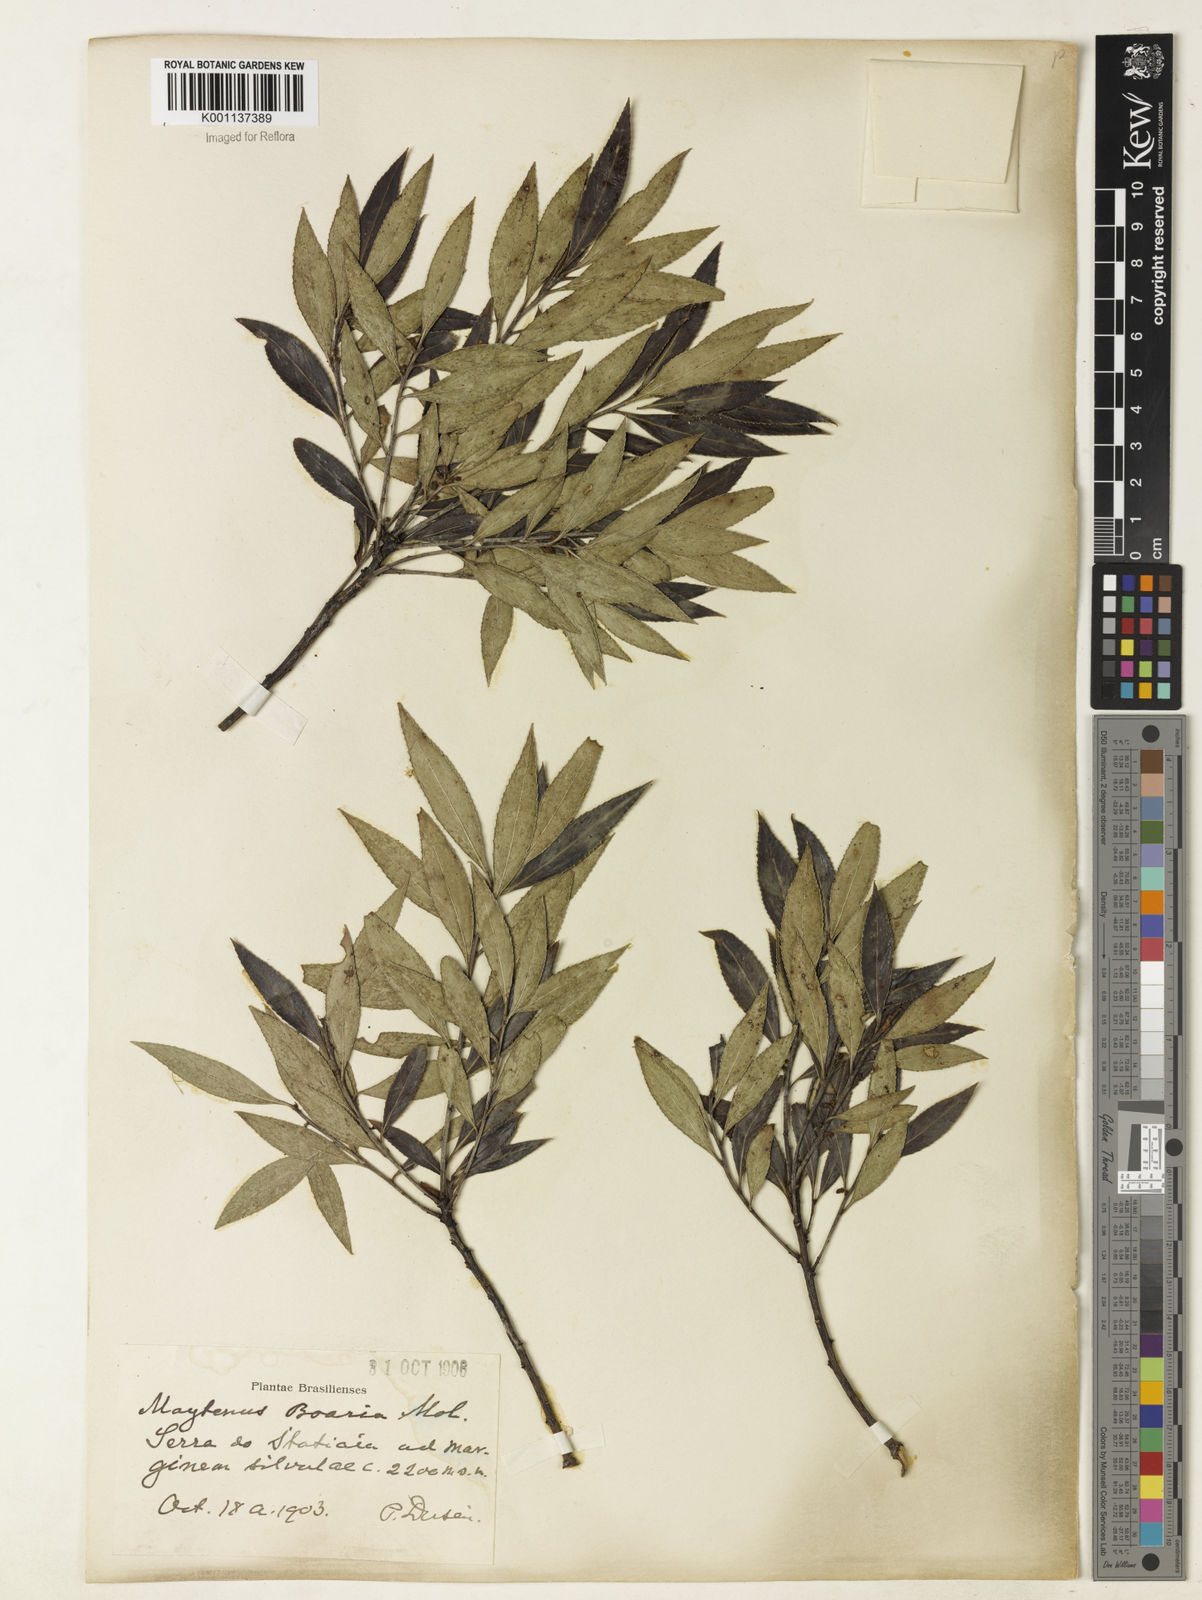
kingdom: Plantae
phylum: Tracheophyta
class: Magnoliopsida
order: Celastrales
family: Celastraceae
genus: Maytenus
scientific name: Maytenus boaria
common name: Mayten
